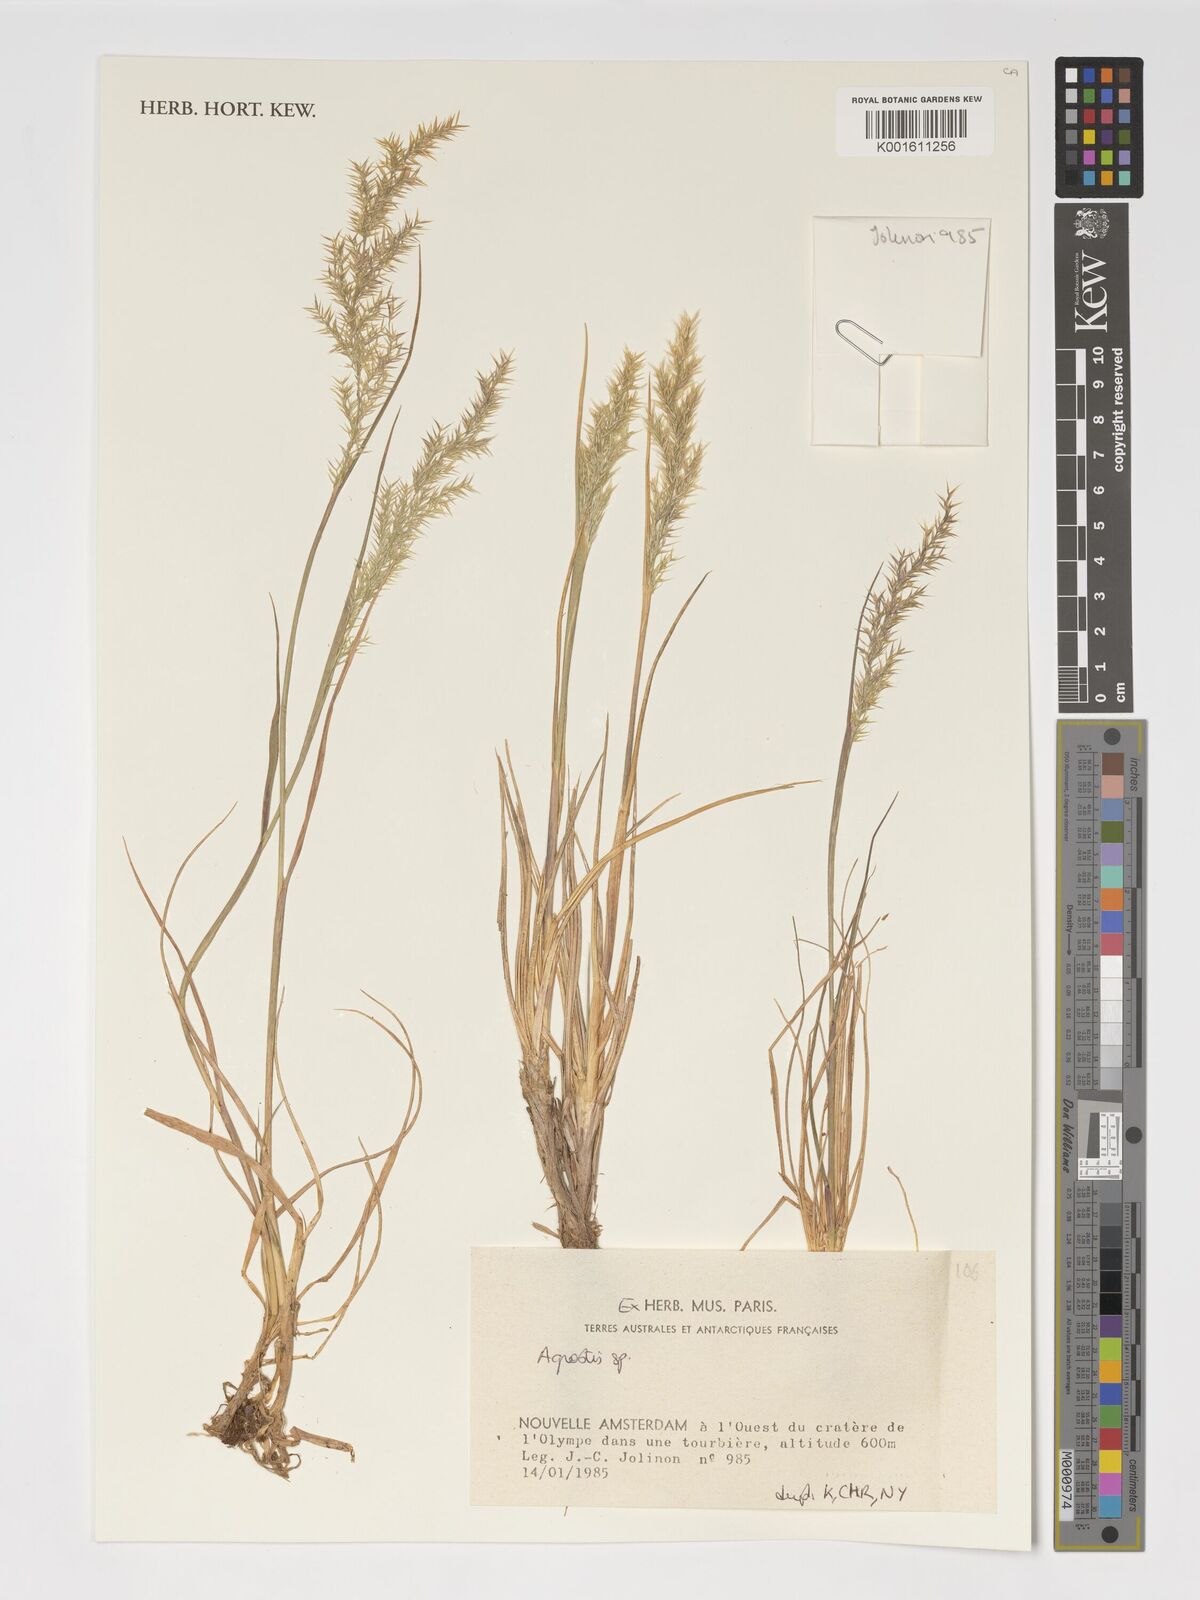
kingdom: Plantae
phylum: Tracheophyta
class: Liliopsida
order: Poales
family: Poaceae
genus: Agrostis
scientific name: Agrostis
